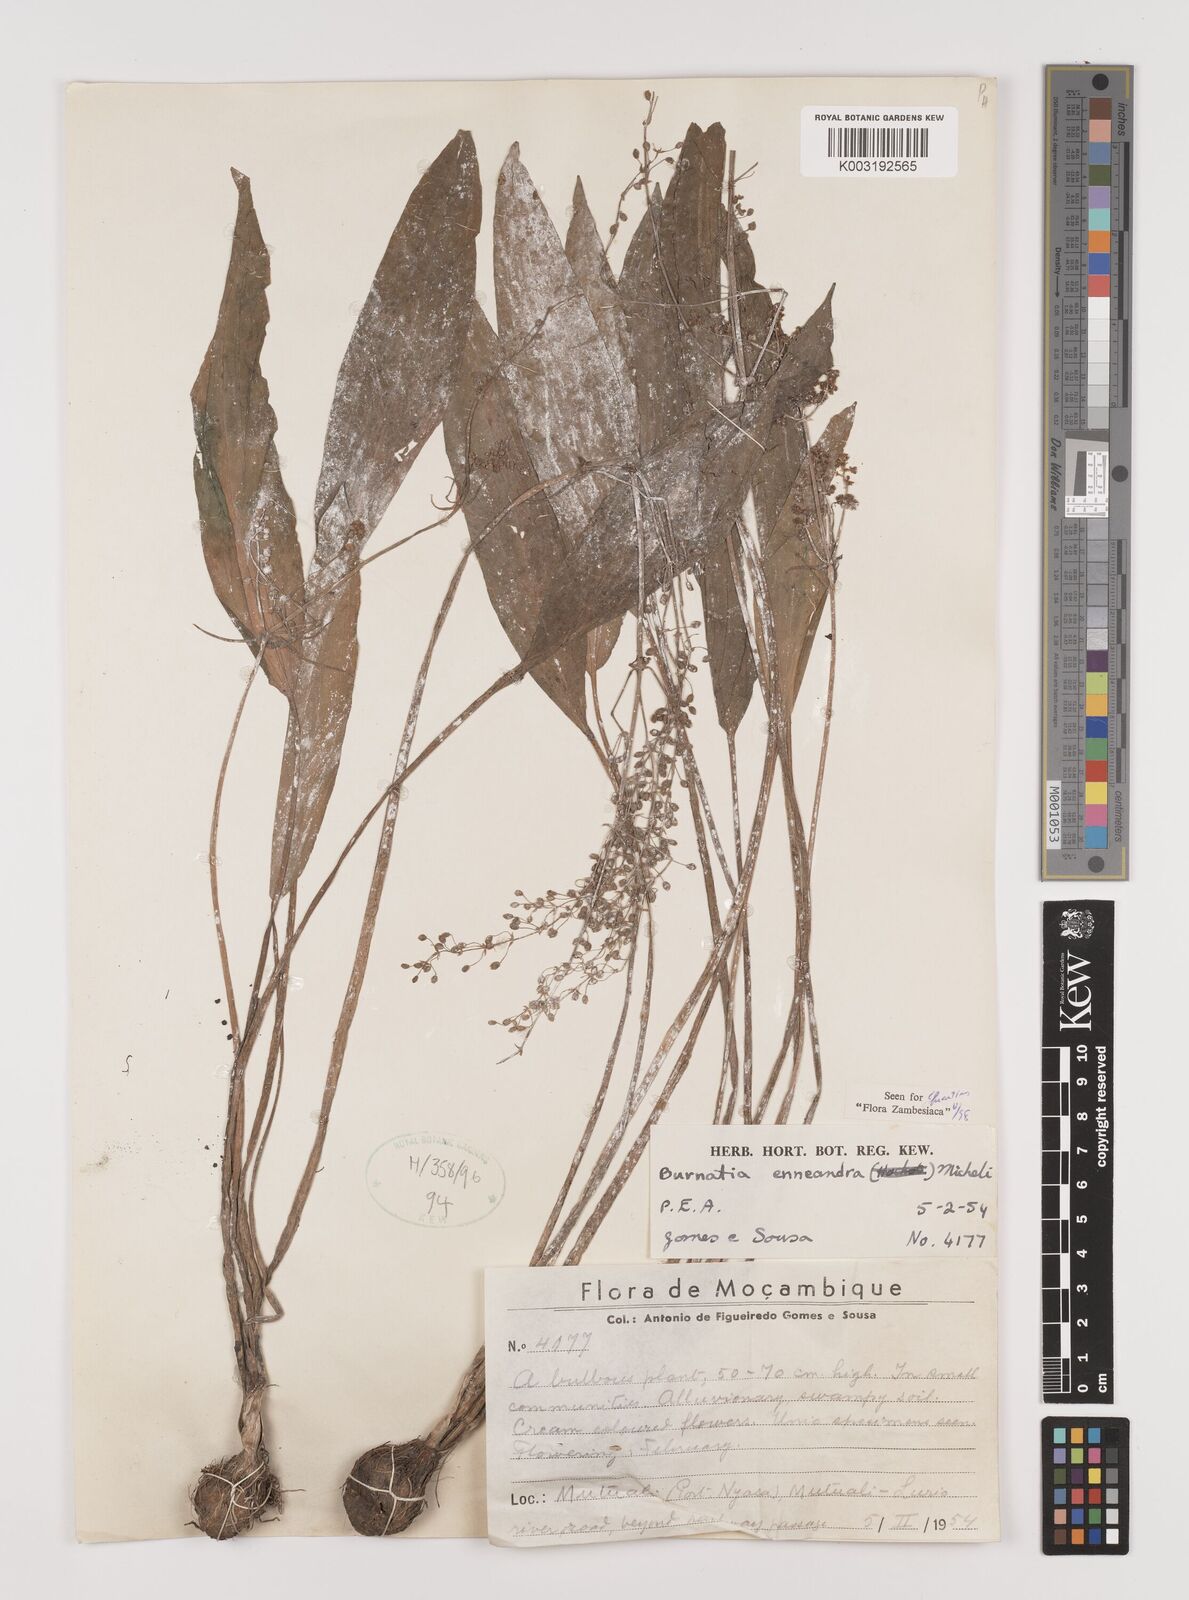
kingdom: Plantae
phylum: Tracheophyta
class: Liliopsida
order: Alismatales
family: Alismataceae
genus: Burnatia
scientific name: Burnatia enneandra
